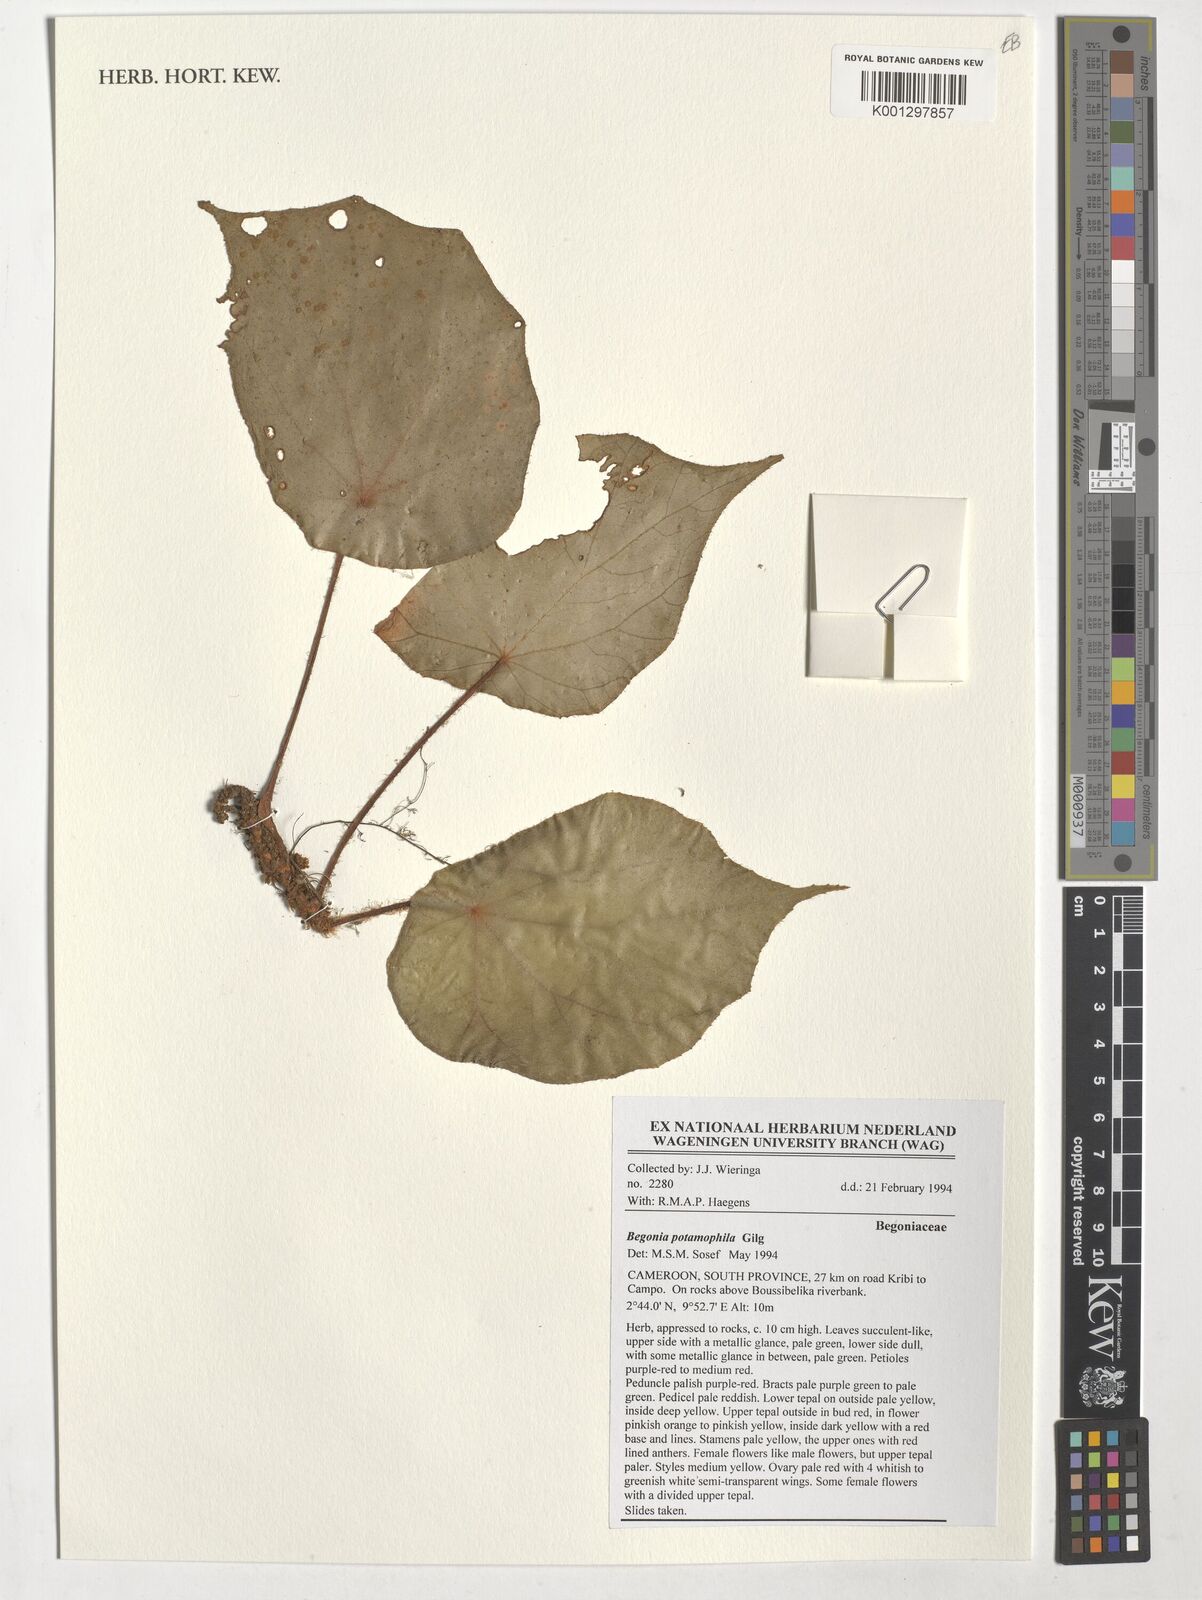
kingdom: Plantae
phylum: Tracheophyta
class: Magnoliopsida
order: Cucurbitales
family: Begoniaceae
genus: Begonia
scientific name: Begonia potamophila
